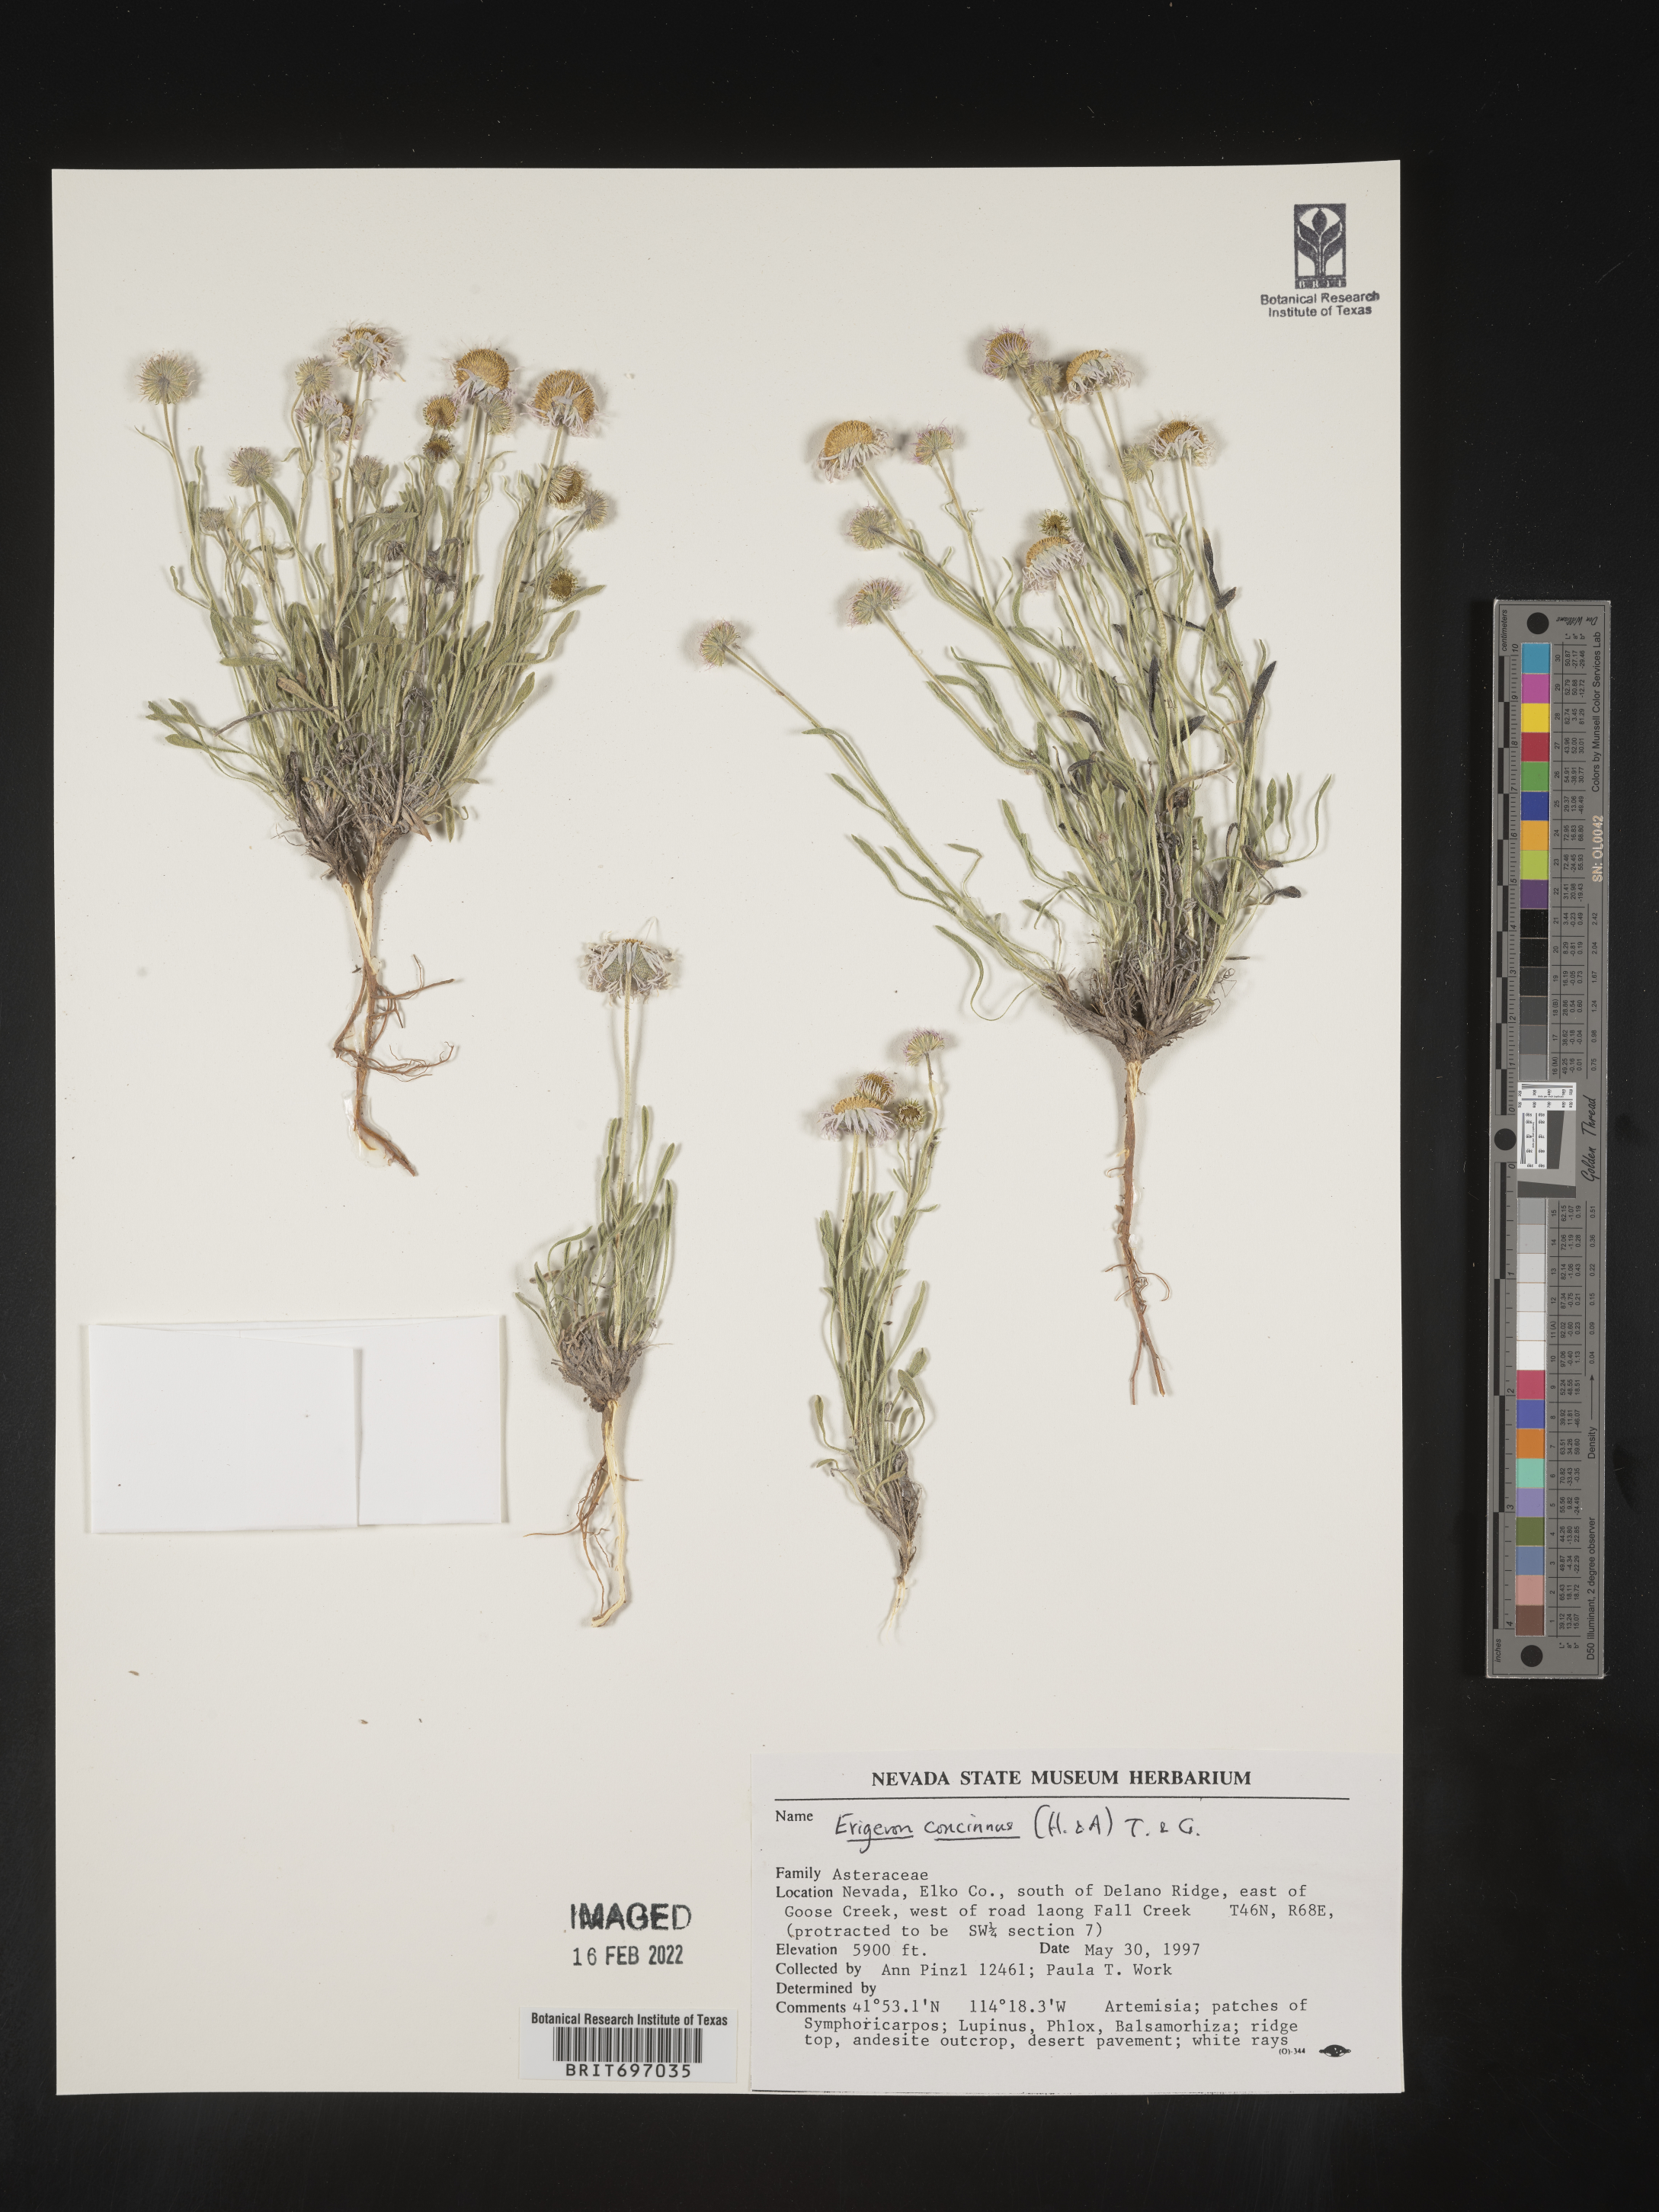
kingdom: Plantae
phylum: Tracheophyta
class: Magnoliopsida
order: Asterales
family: Asteraceae
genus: Erigeron
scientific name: Erigeron concinnus
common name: Navajo fleabane
